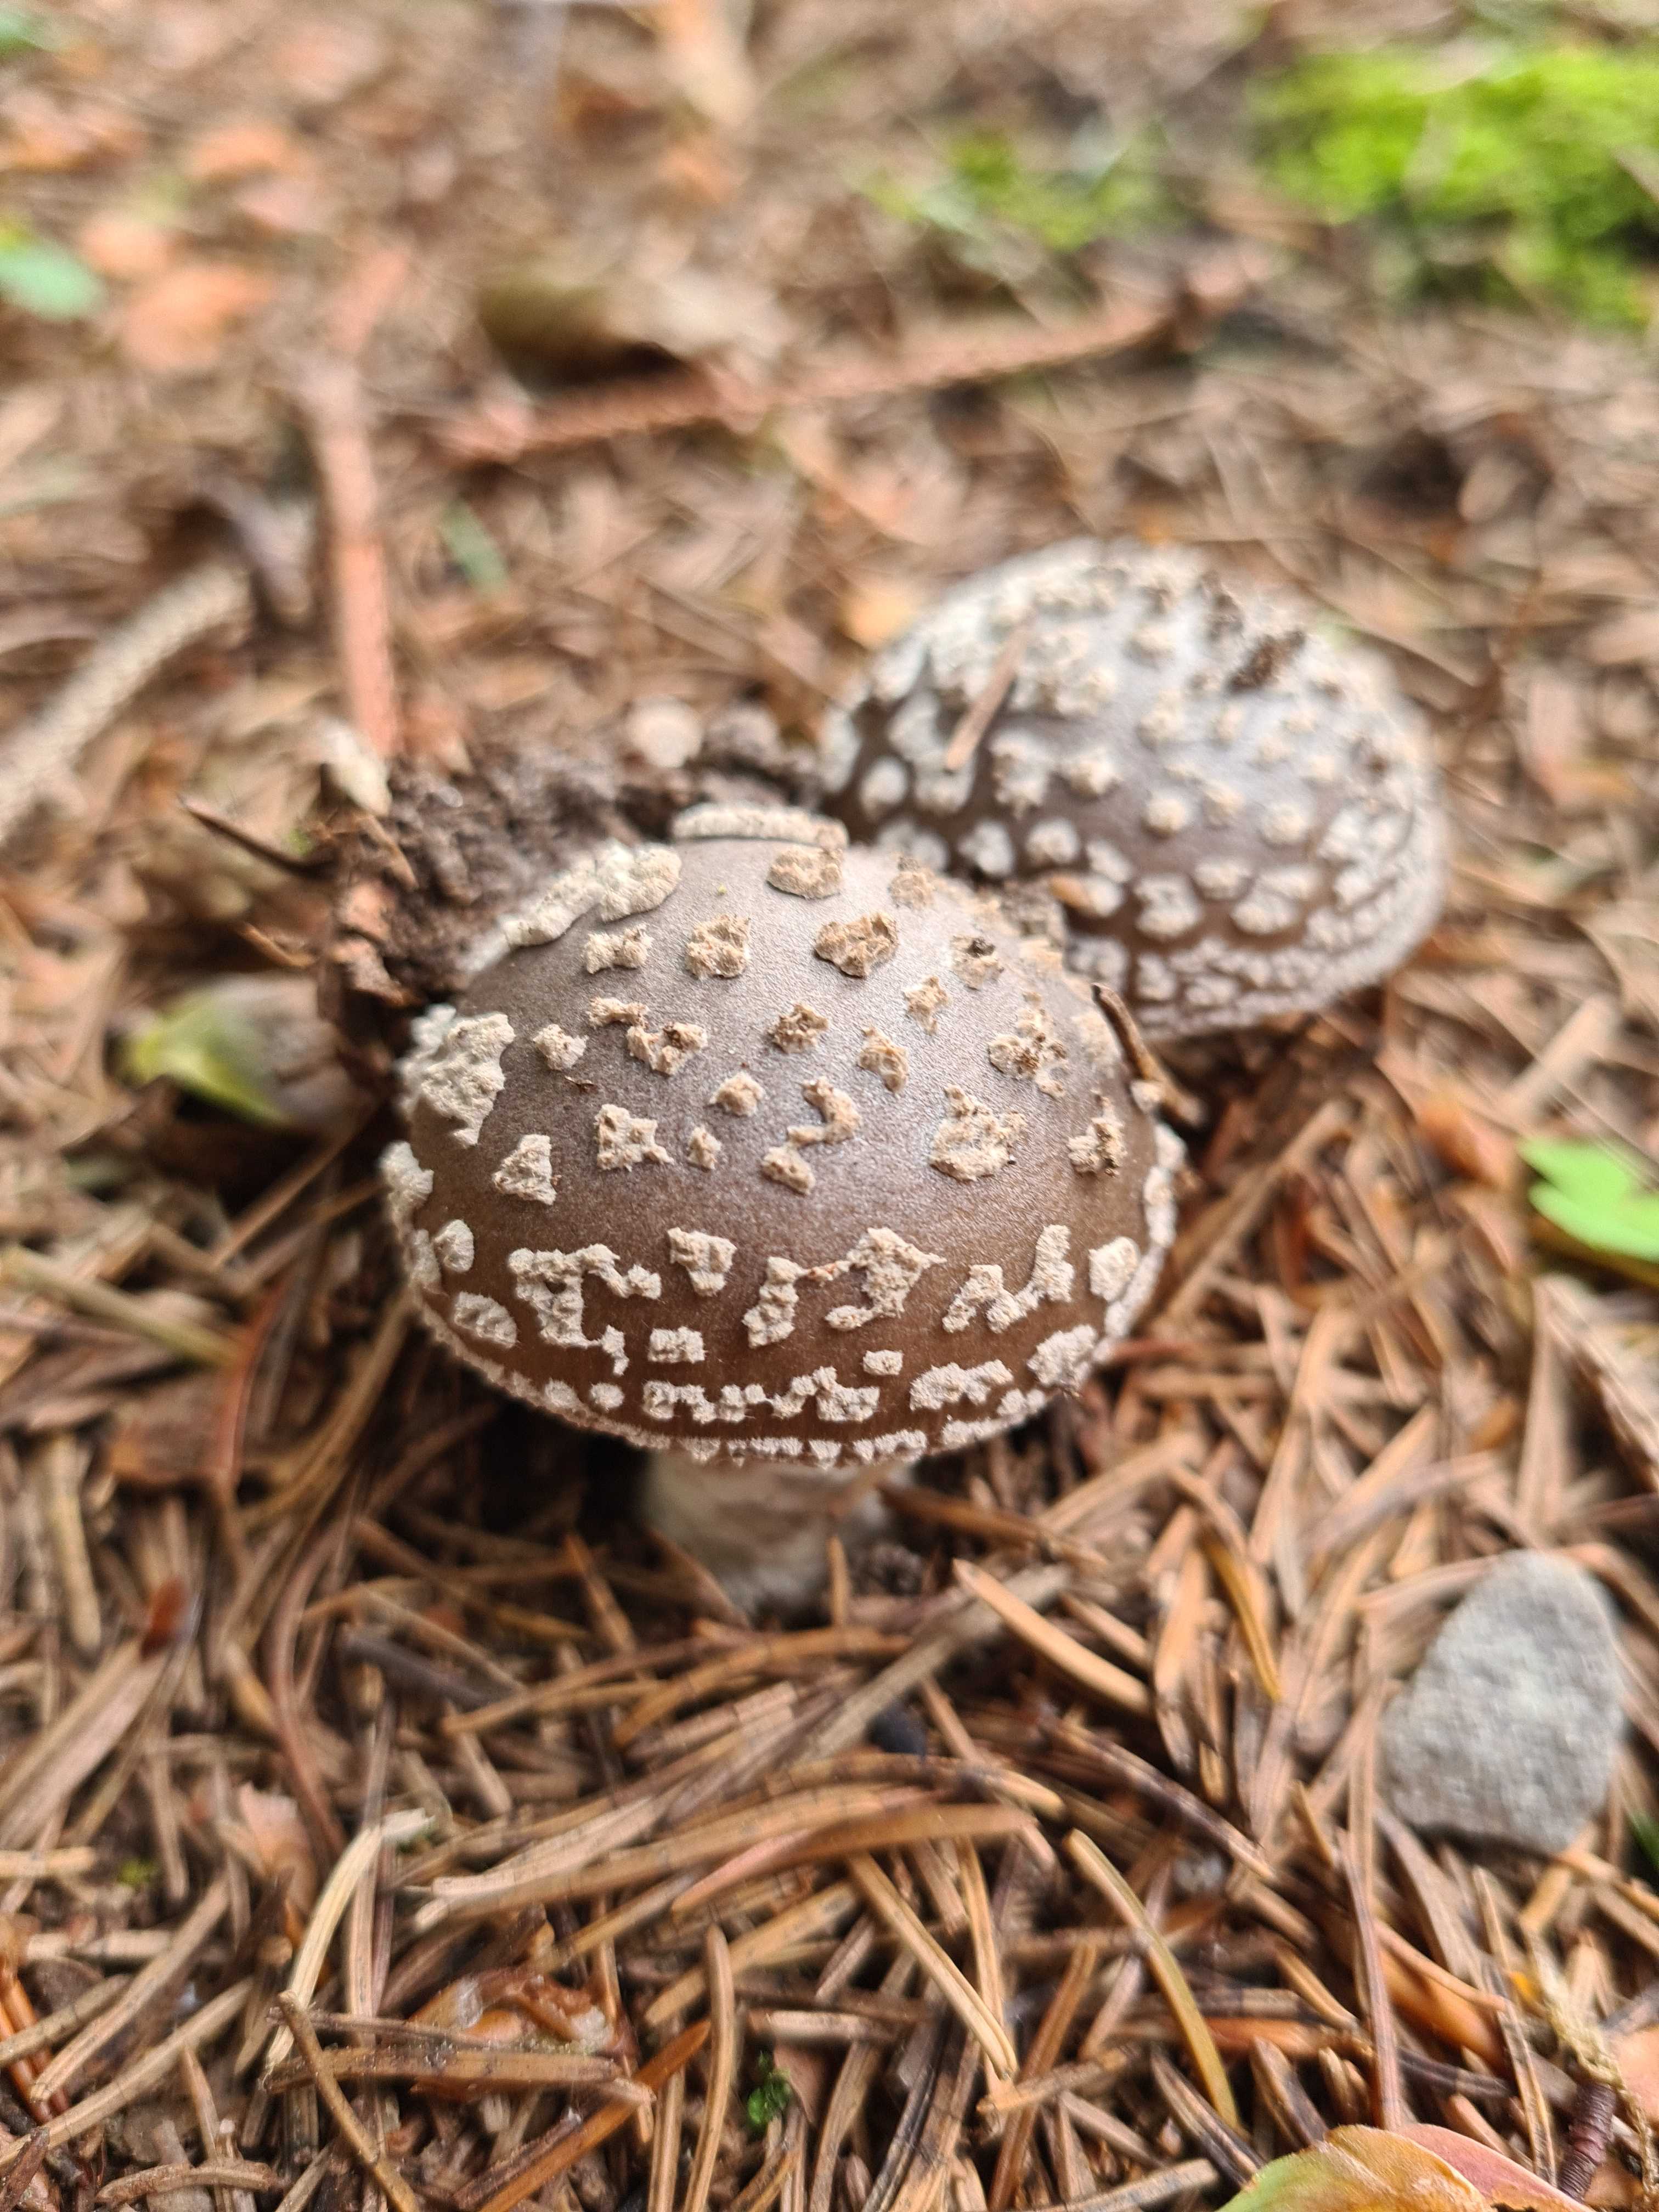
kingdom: Fungi
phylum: Basidiomycota
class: Agaricomycetes
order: Agaricales
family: Amanitaceae
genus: Amanita
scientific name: Amanita
